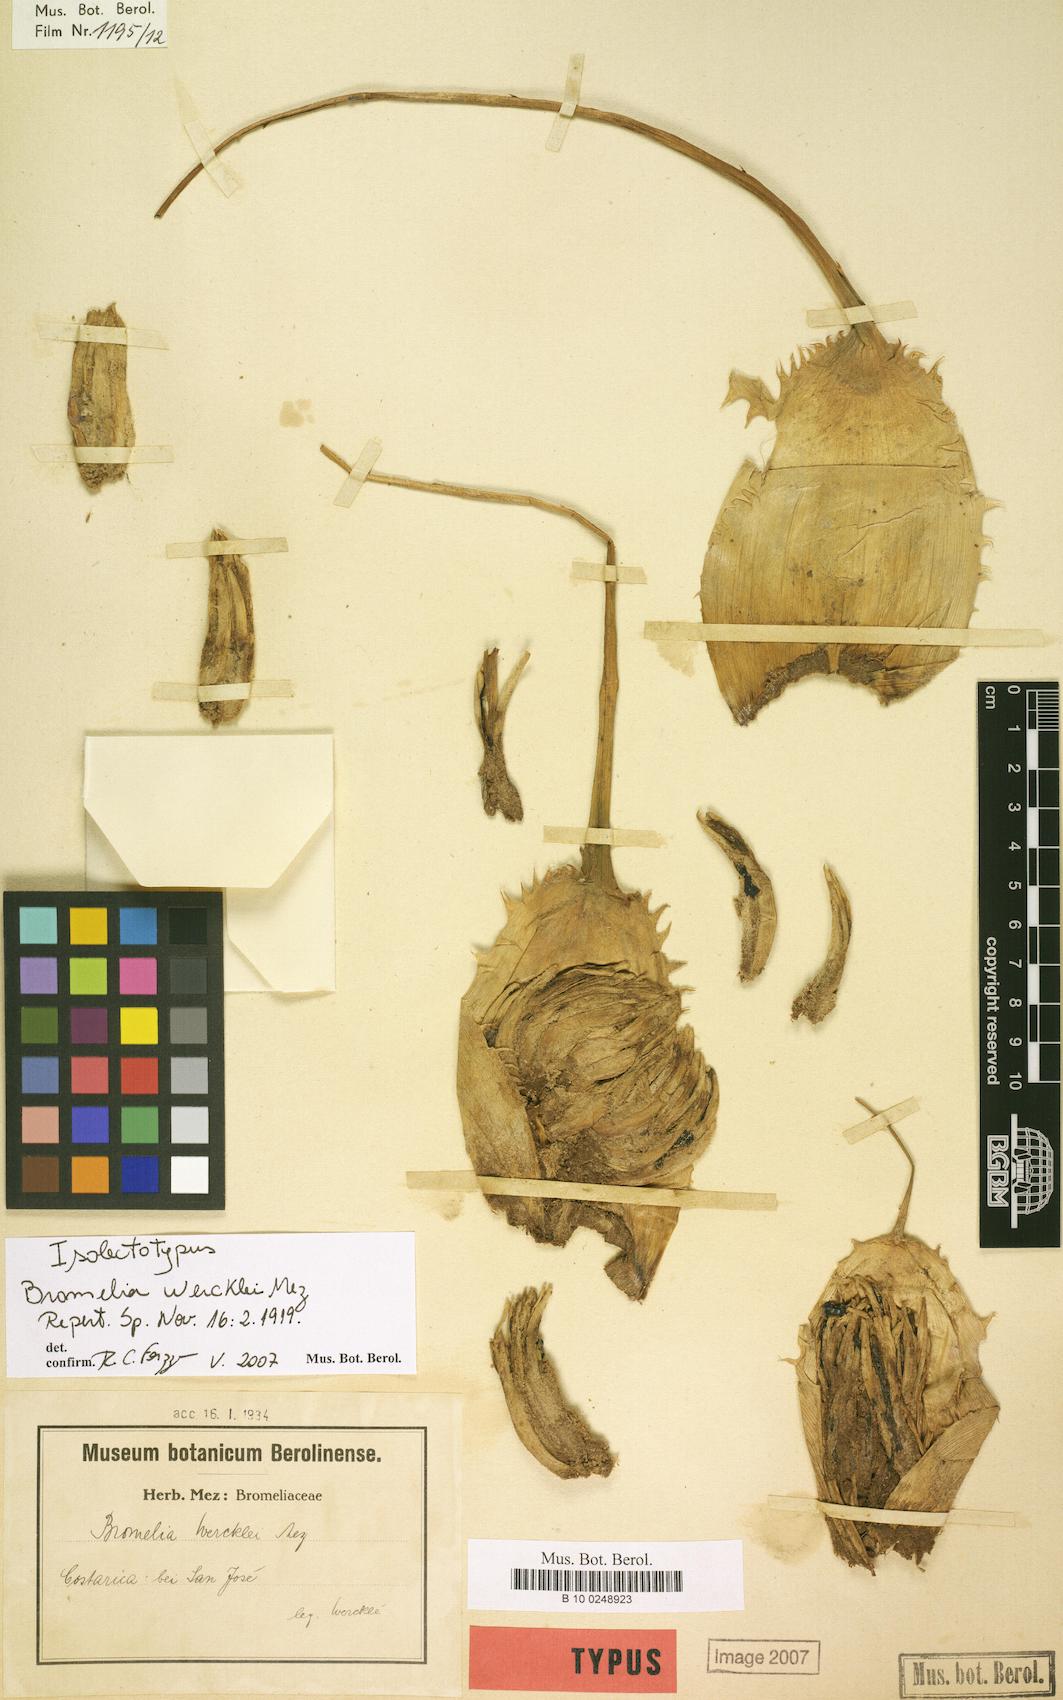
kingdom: Plantae
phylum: Tracheophyta
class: Liliopsida
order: Poales
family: Bromeliaceae
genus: Bromelia
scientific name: Bromelia hemisphaerica
